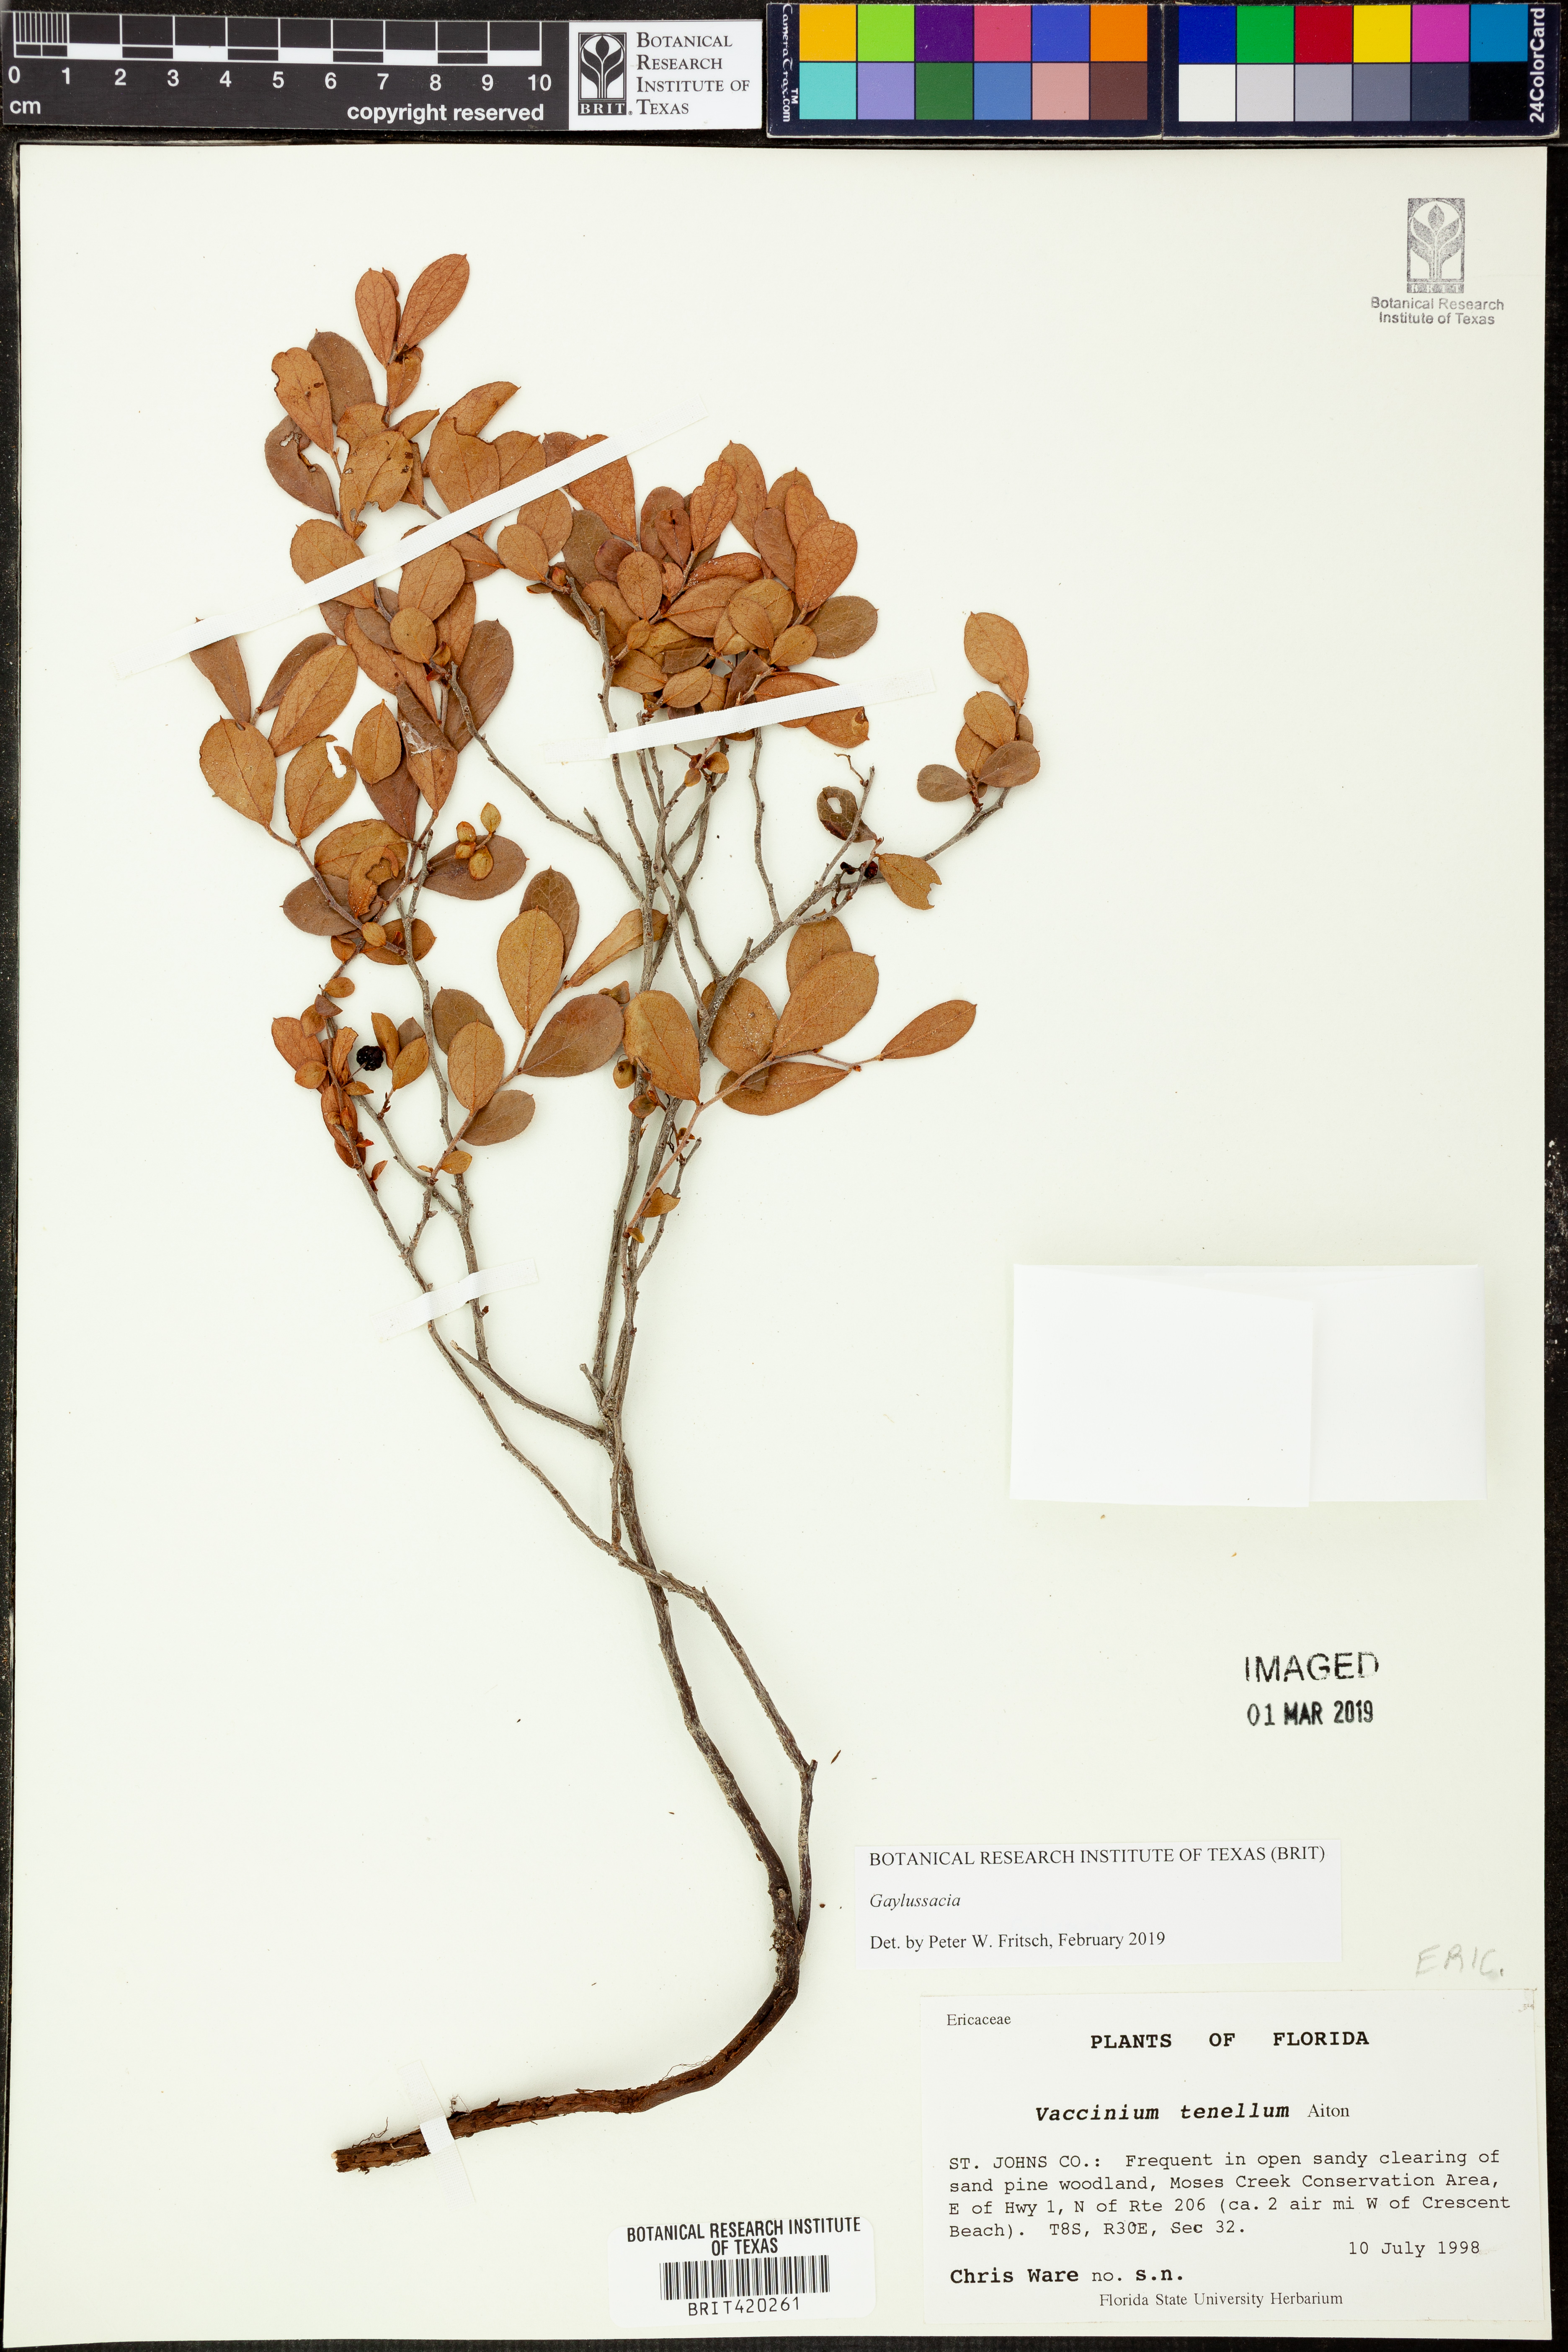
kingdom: Plantae
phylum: Tracheophyta
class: Magnoliopsida
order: Ericales
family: Ericaceae
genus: Vaccinium
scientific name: Vaccinium tenellum
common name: Southern blueberry
